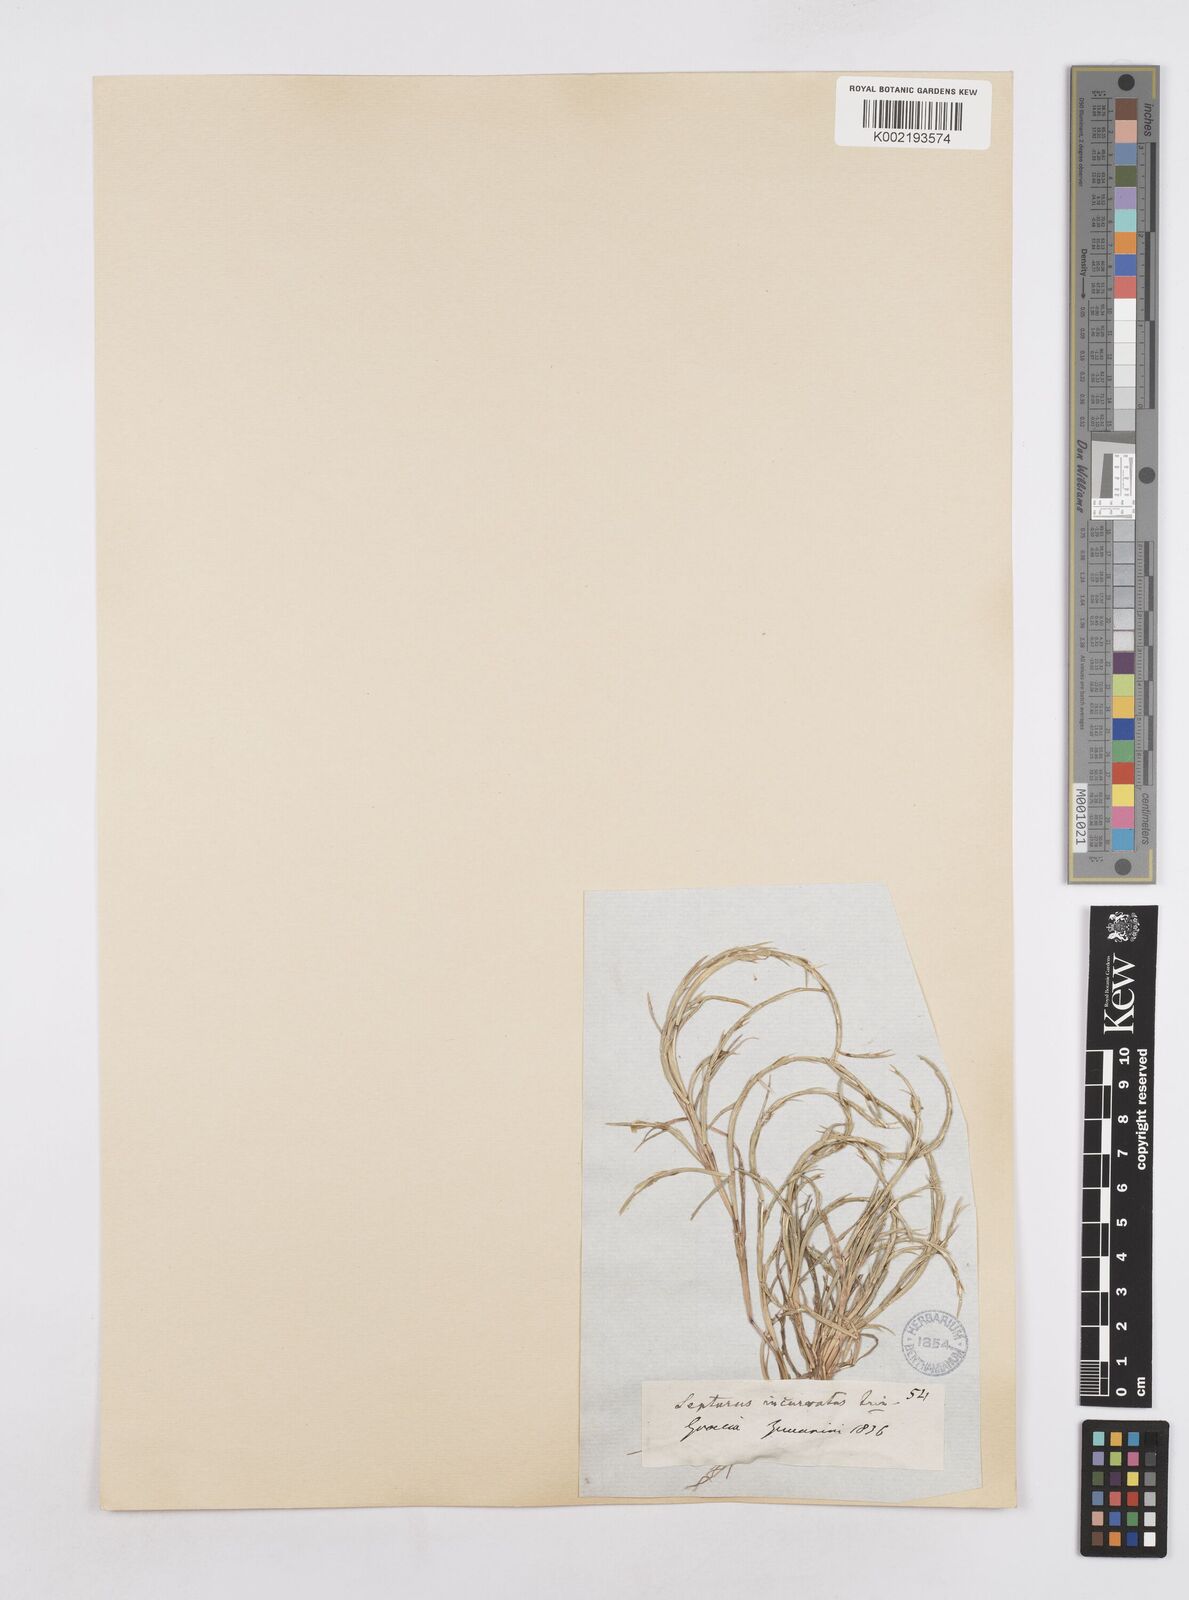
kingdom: Plantae
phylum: Tracheophyta
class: Liliopsida
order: Poales
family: Poaceae
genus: Parapholis
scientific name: Parapholis incurva
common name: Curved sicklegrass
